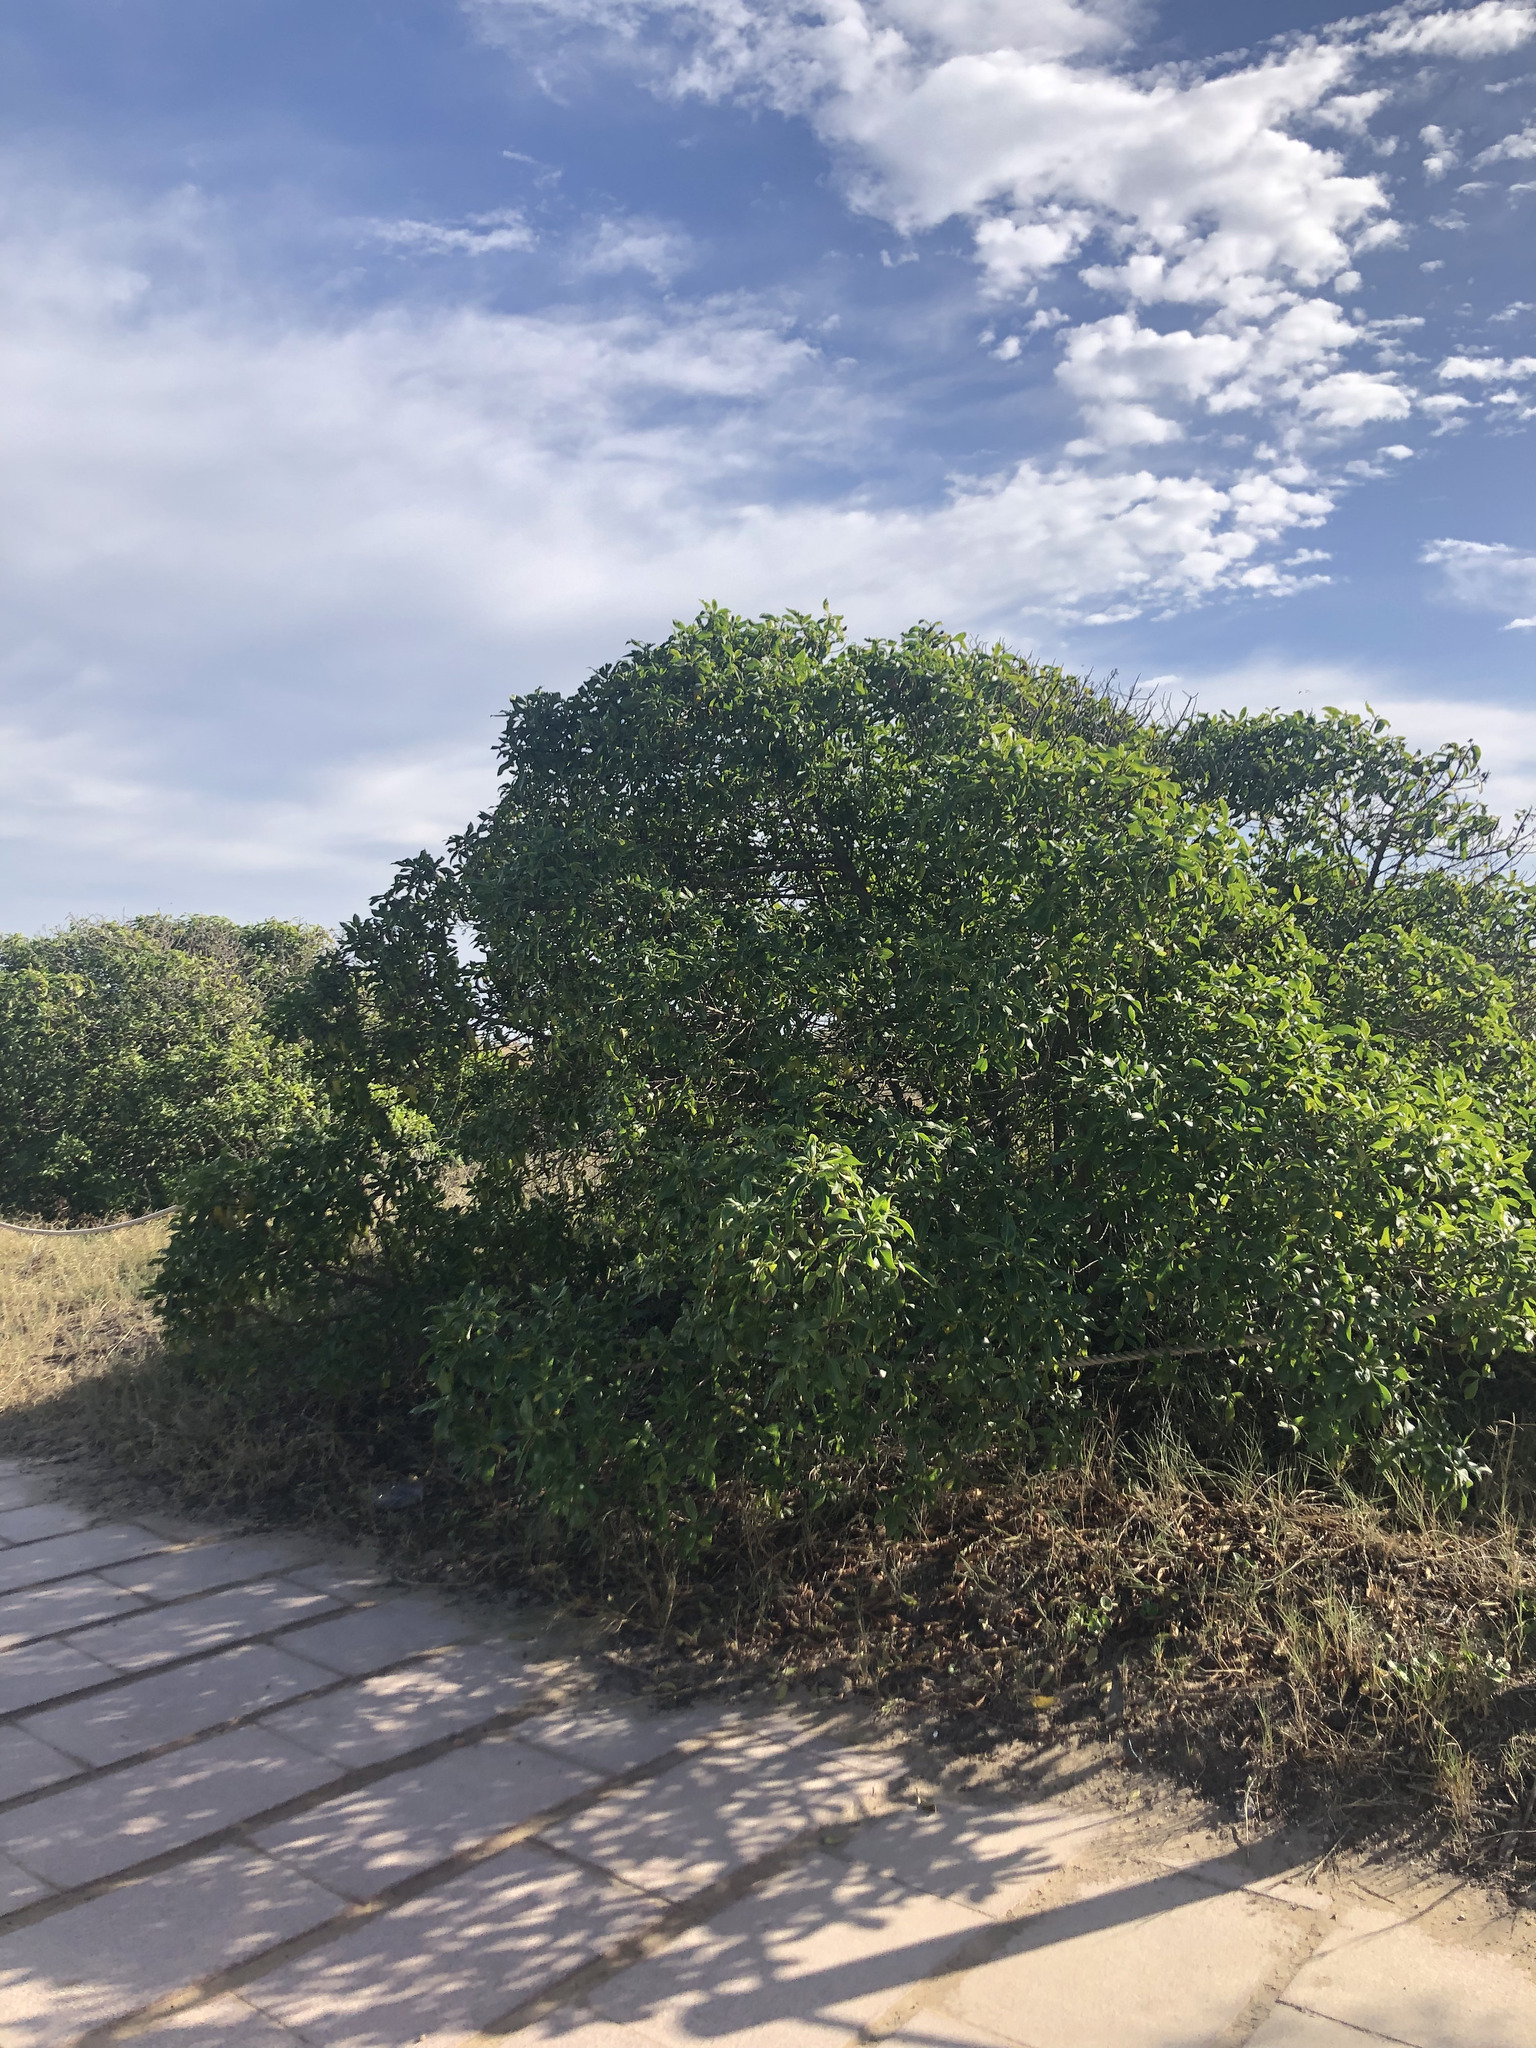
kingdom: Plantae
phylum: Tracheophyta
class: Magnoliopsida
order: Lamiales
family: Scrophulariaceae
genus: Myoporum
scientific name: Myoporum laetum
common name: Ngaio tree
